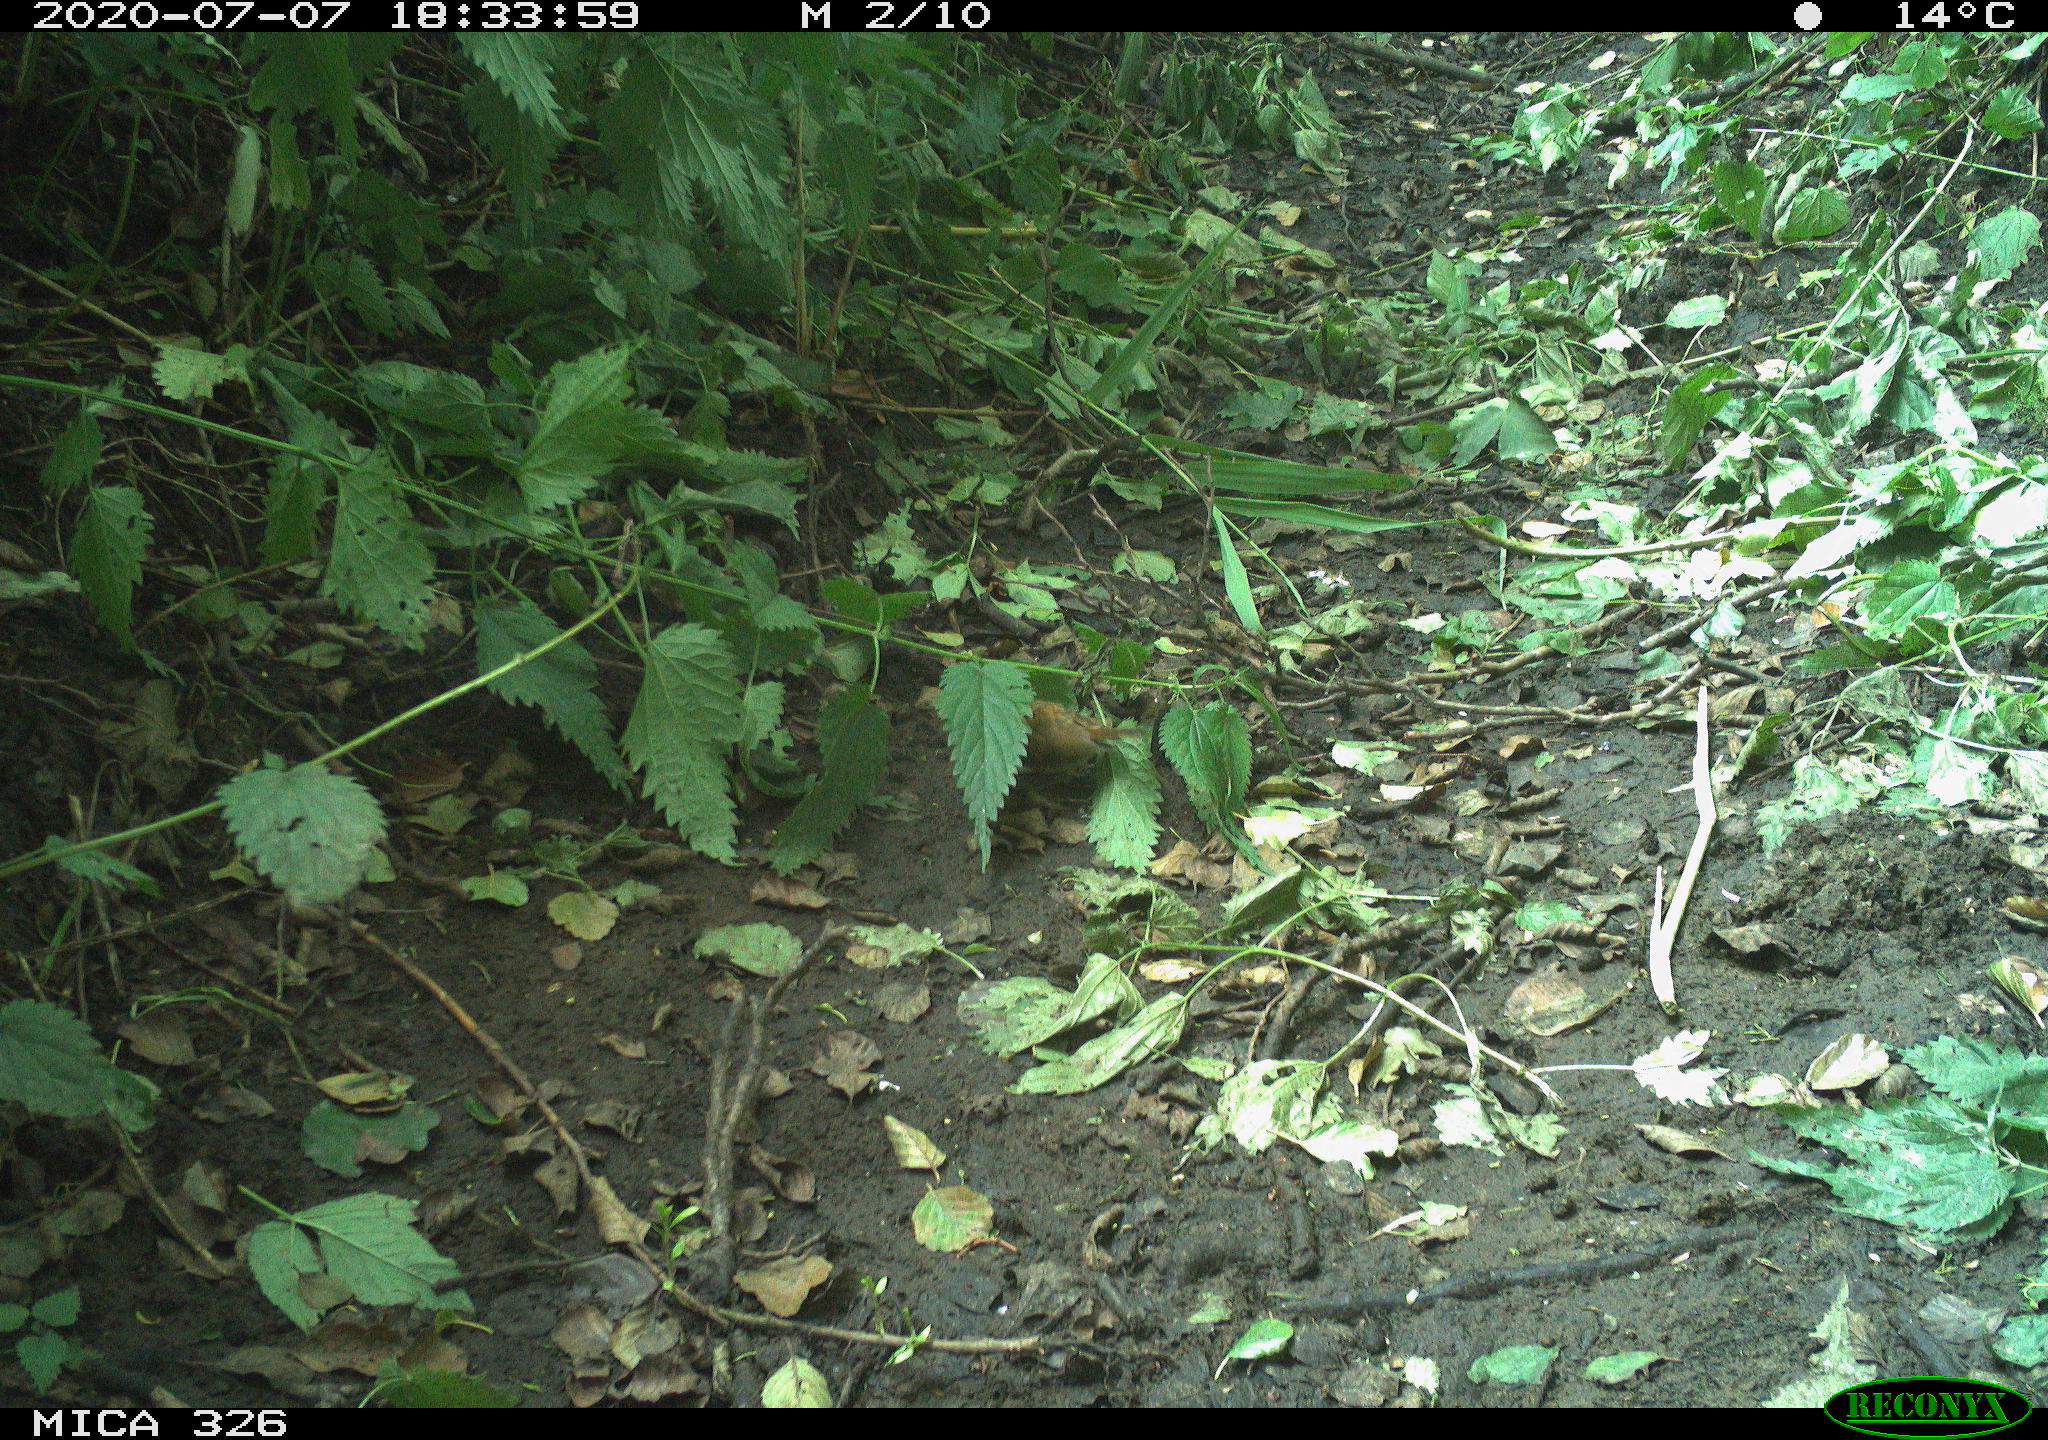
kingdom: Animalia
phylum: Chordata
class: Aves
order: Passeriformes
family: Muscicapidae
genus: Erithacus
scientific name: Erithacus rubecula
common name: European robin
